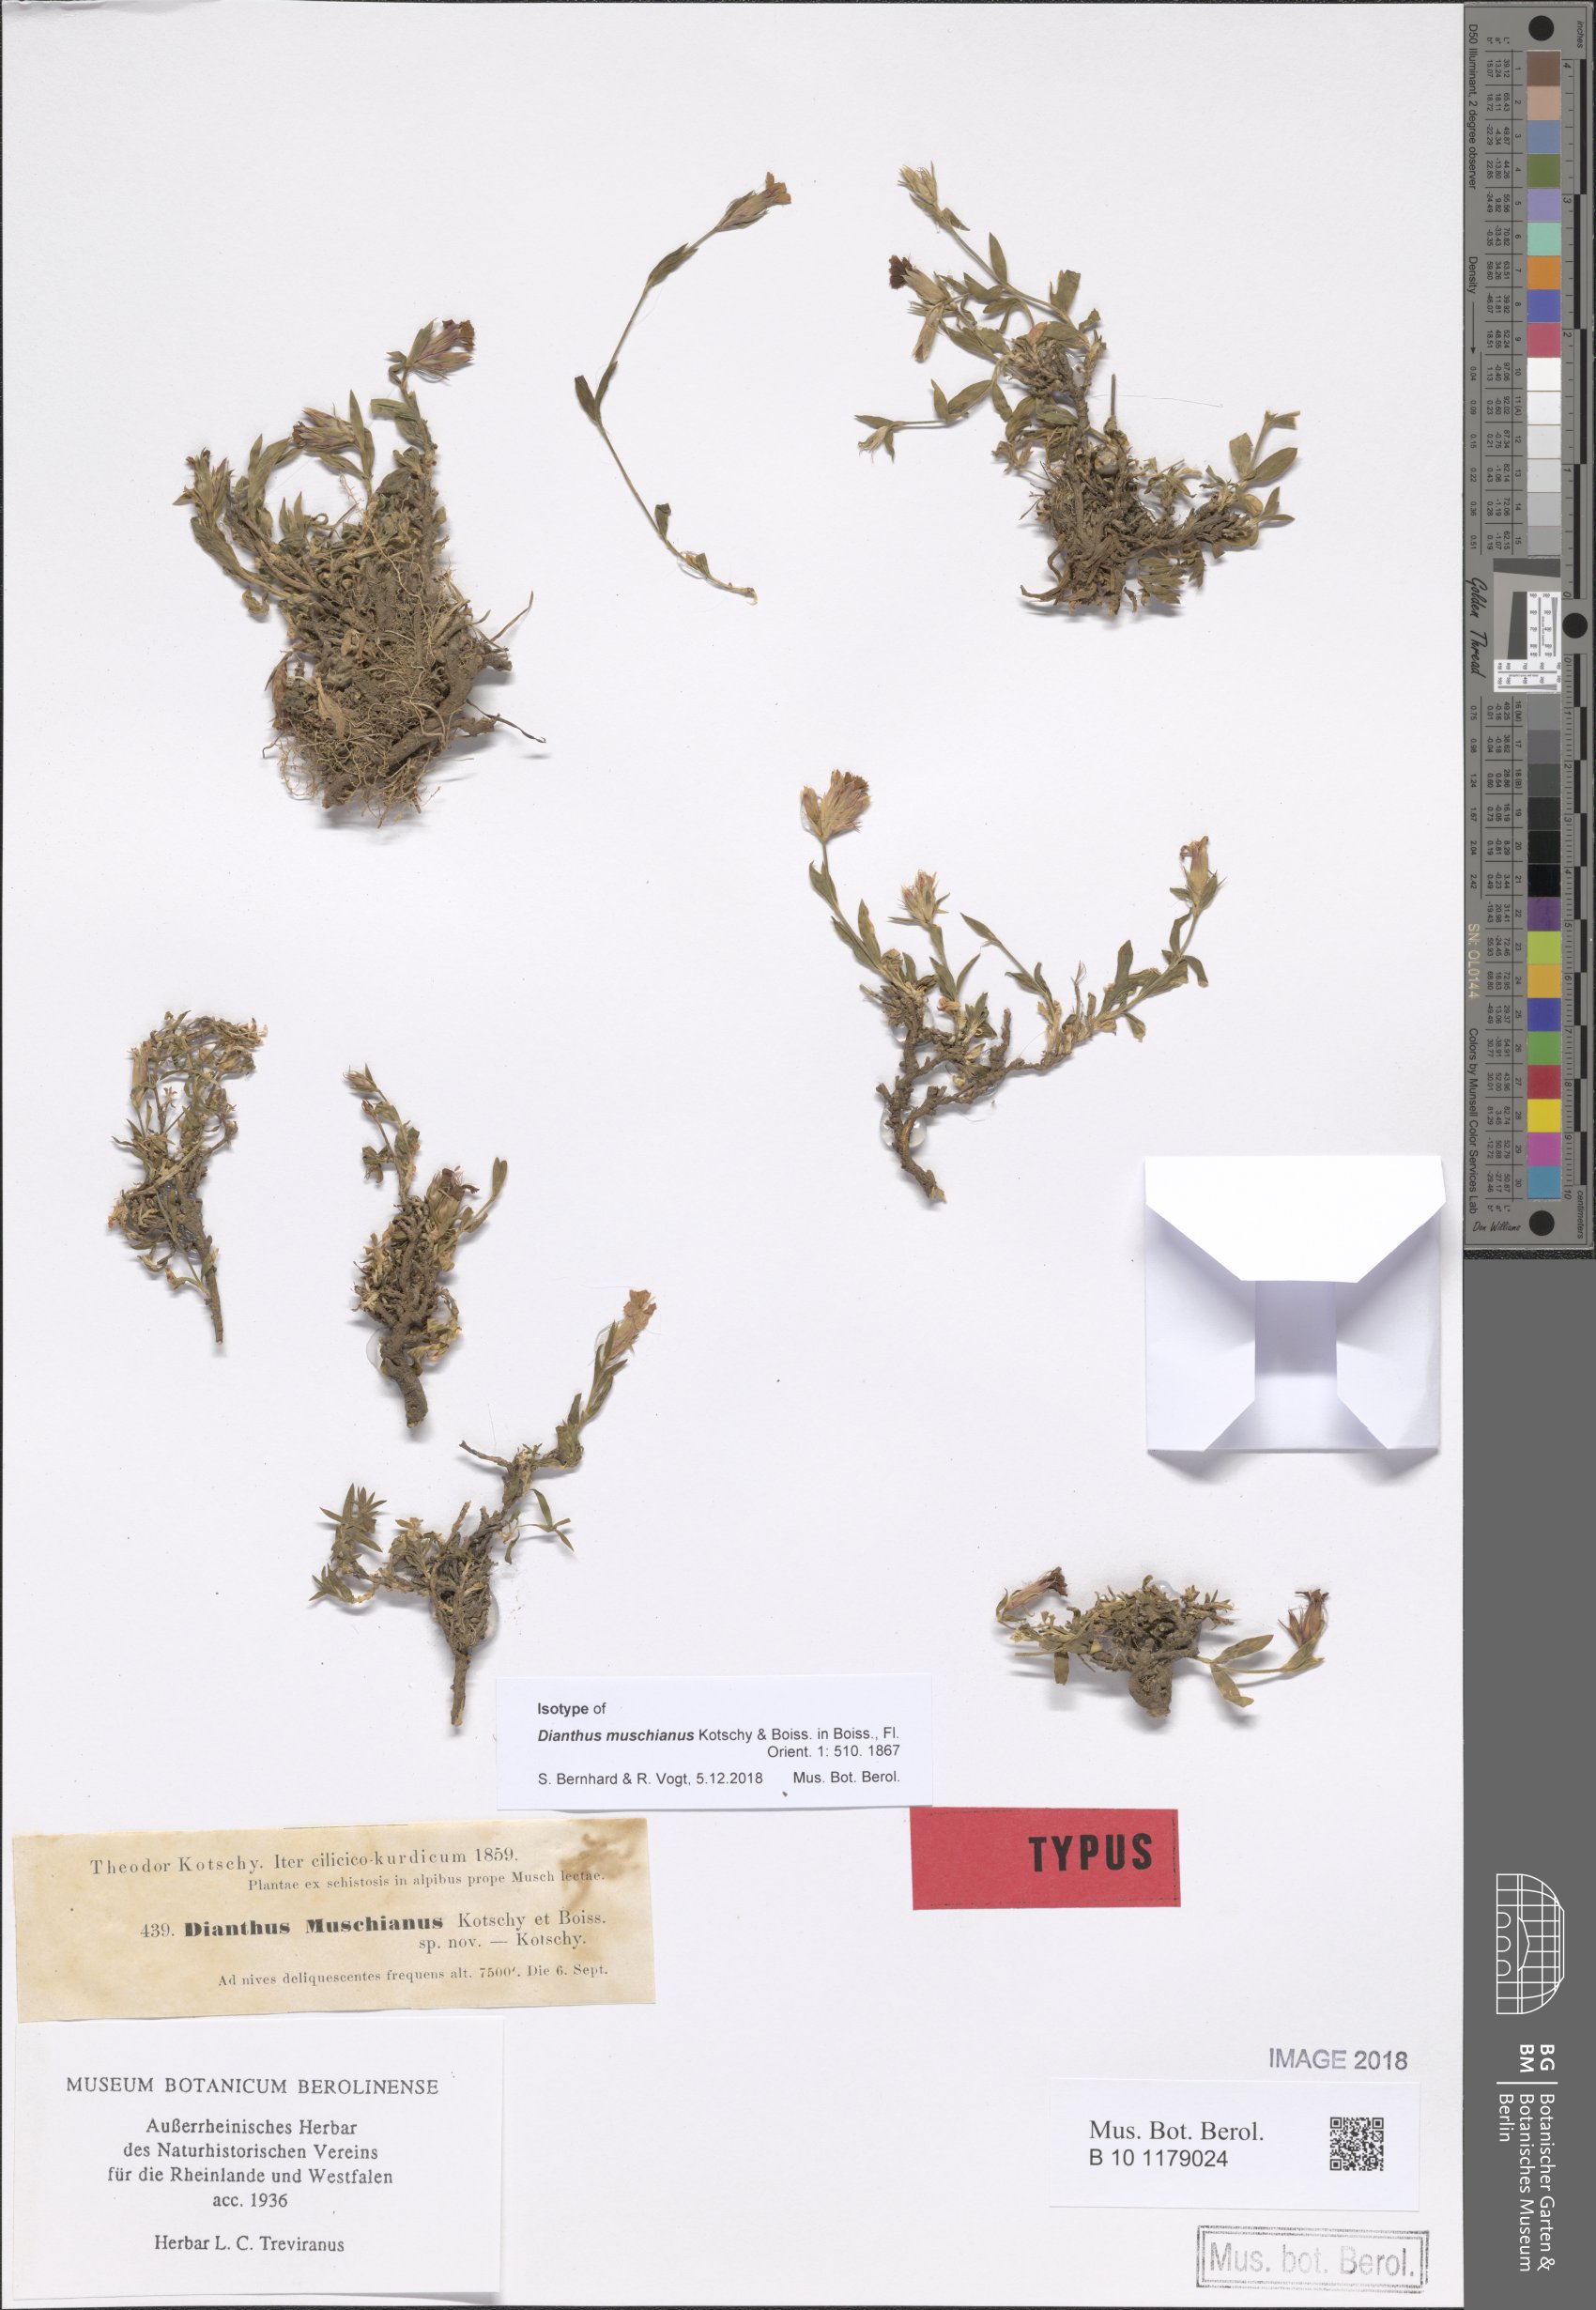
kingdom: Plantae
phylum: Tracheophyta
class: Magnoliopsida
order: Caryophyllales
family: Caryophyllaceae
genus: Dianthus
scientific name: Dianthus muschianus
